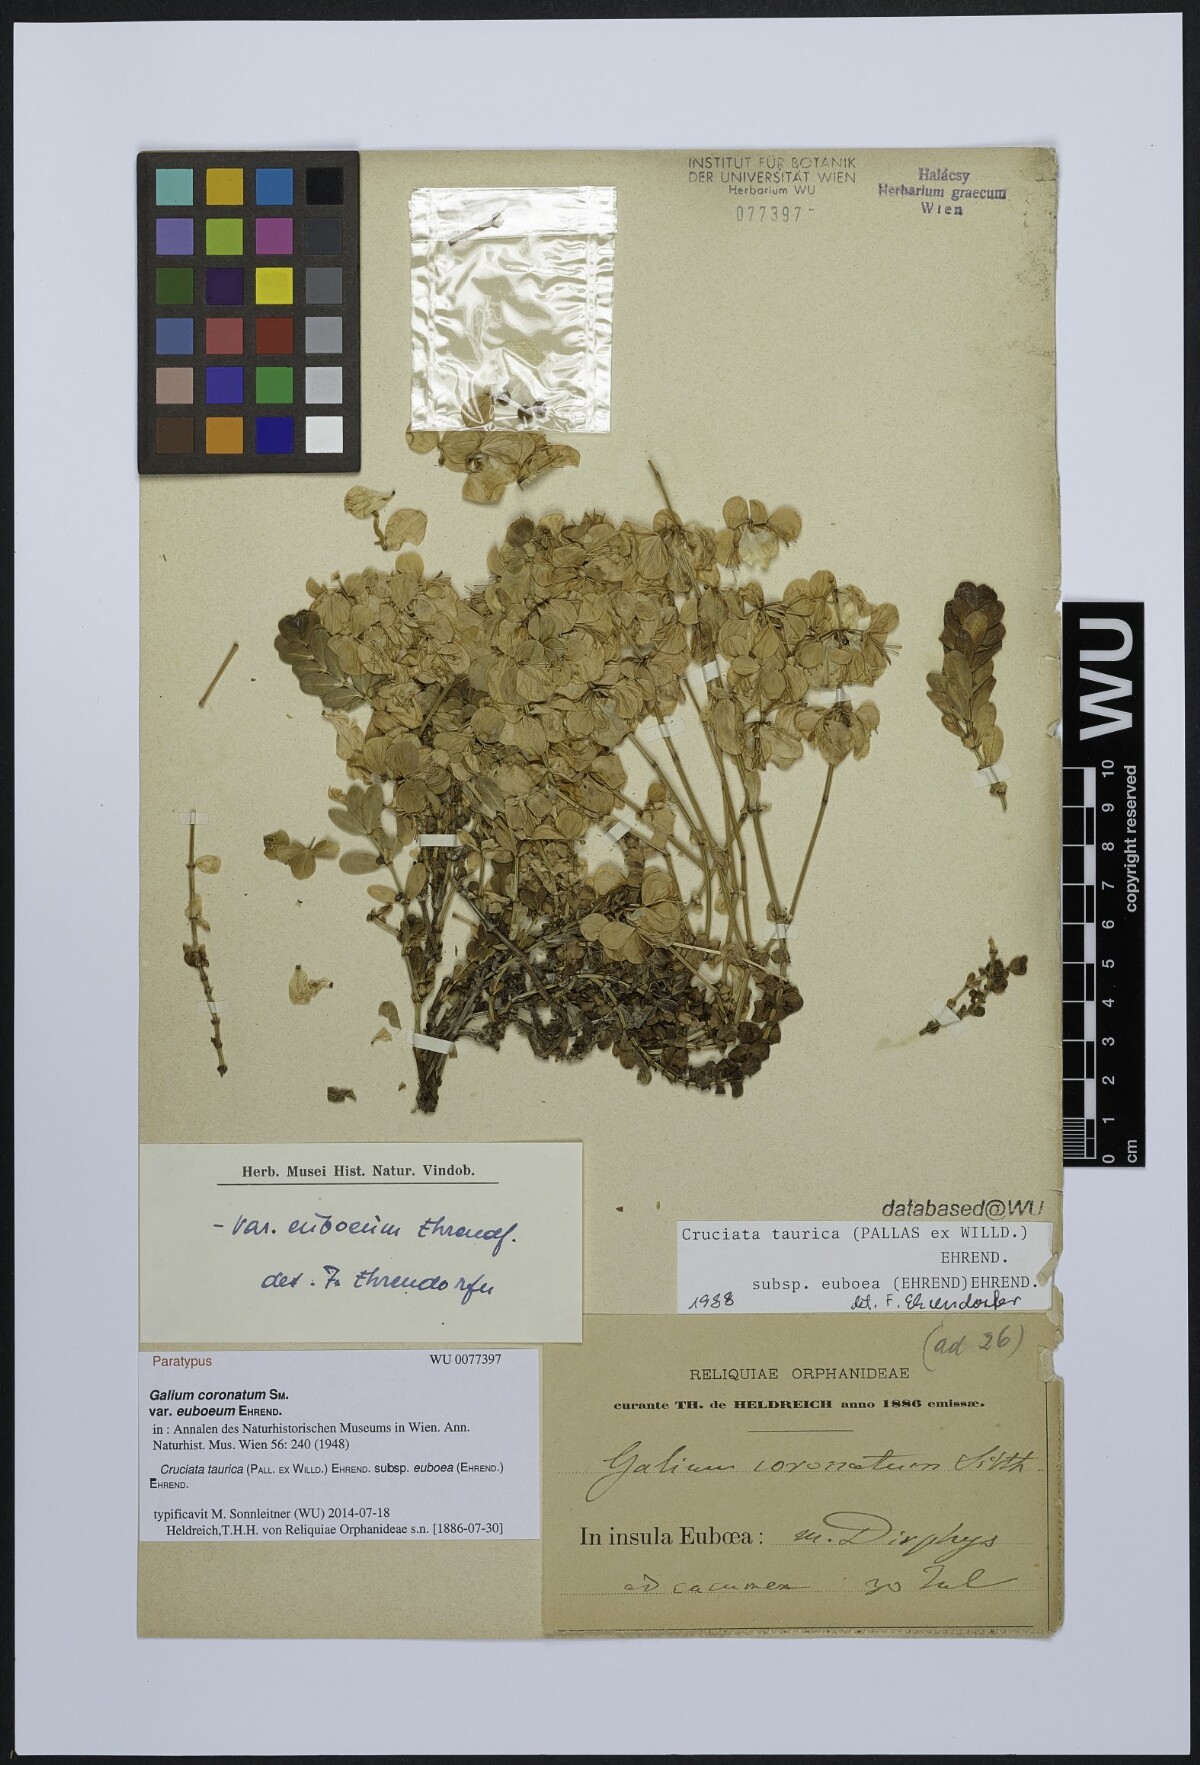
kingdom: Plantae
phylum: Tracheophyta
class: Magnoliopsida
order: Gentianales
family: Rubiaceae
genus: Cruciata
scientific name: Cruciata taurica
